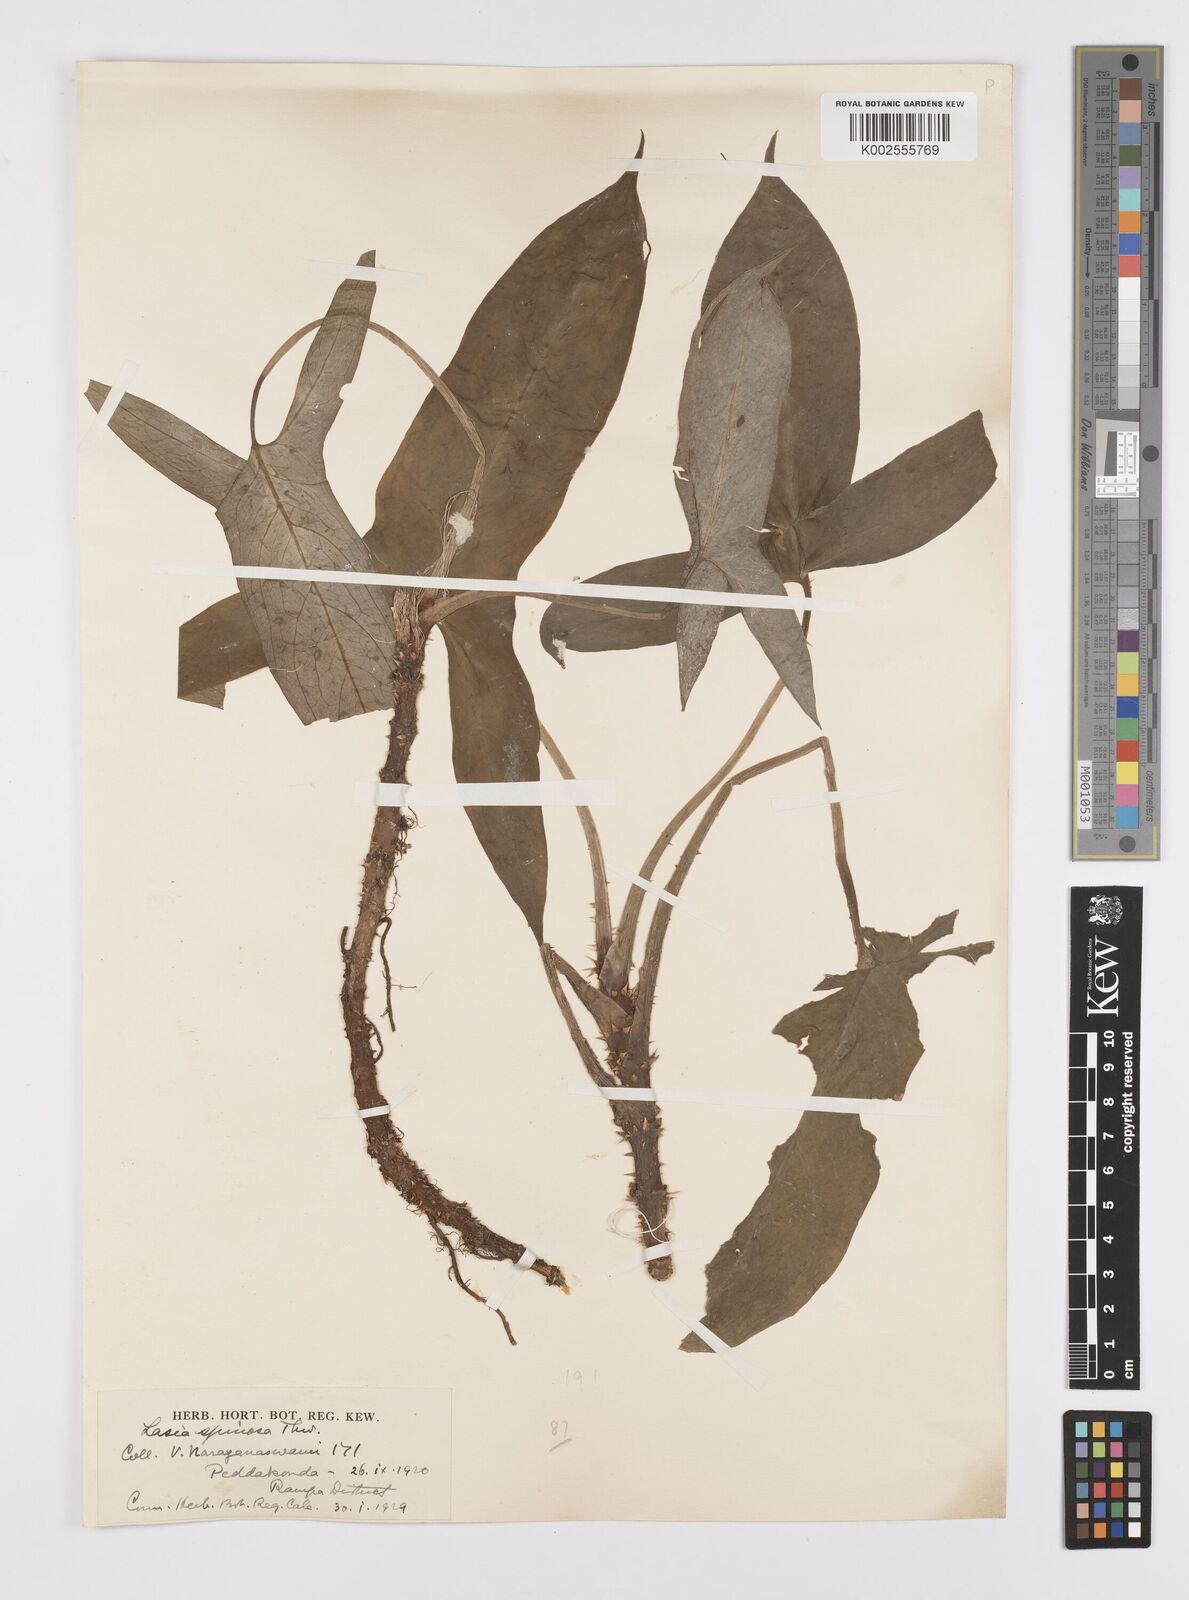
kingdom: Plantae
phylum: Tracheophyta
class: Liliopsida
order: Alismatales
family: Araceae
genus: Lasia
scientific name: Lasia spinosa
